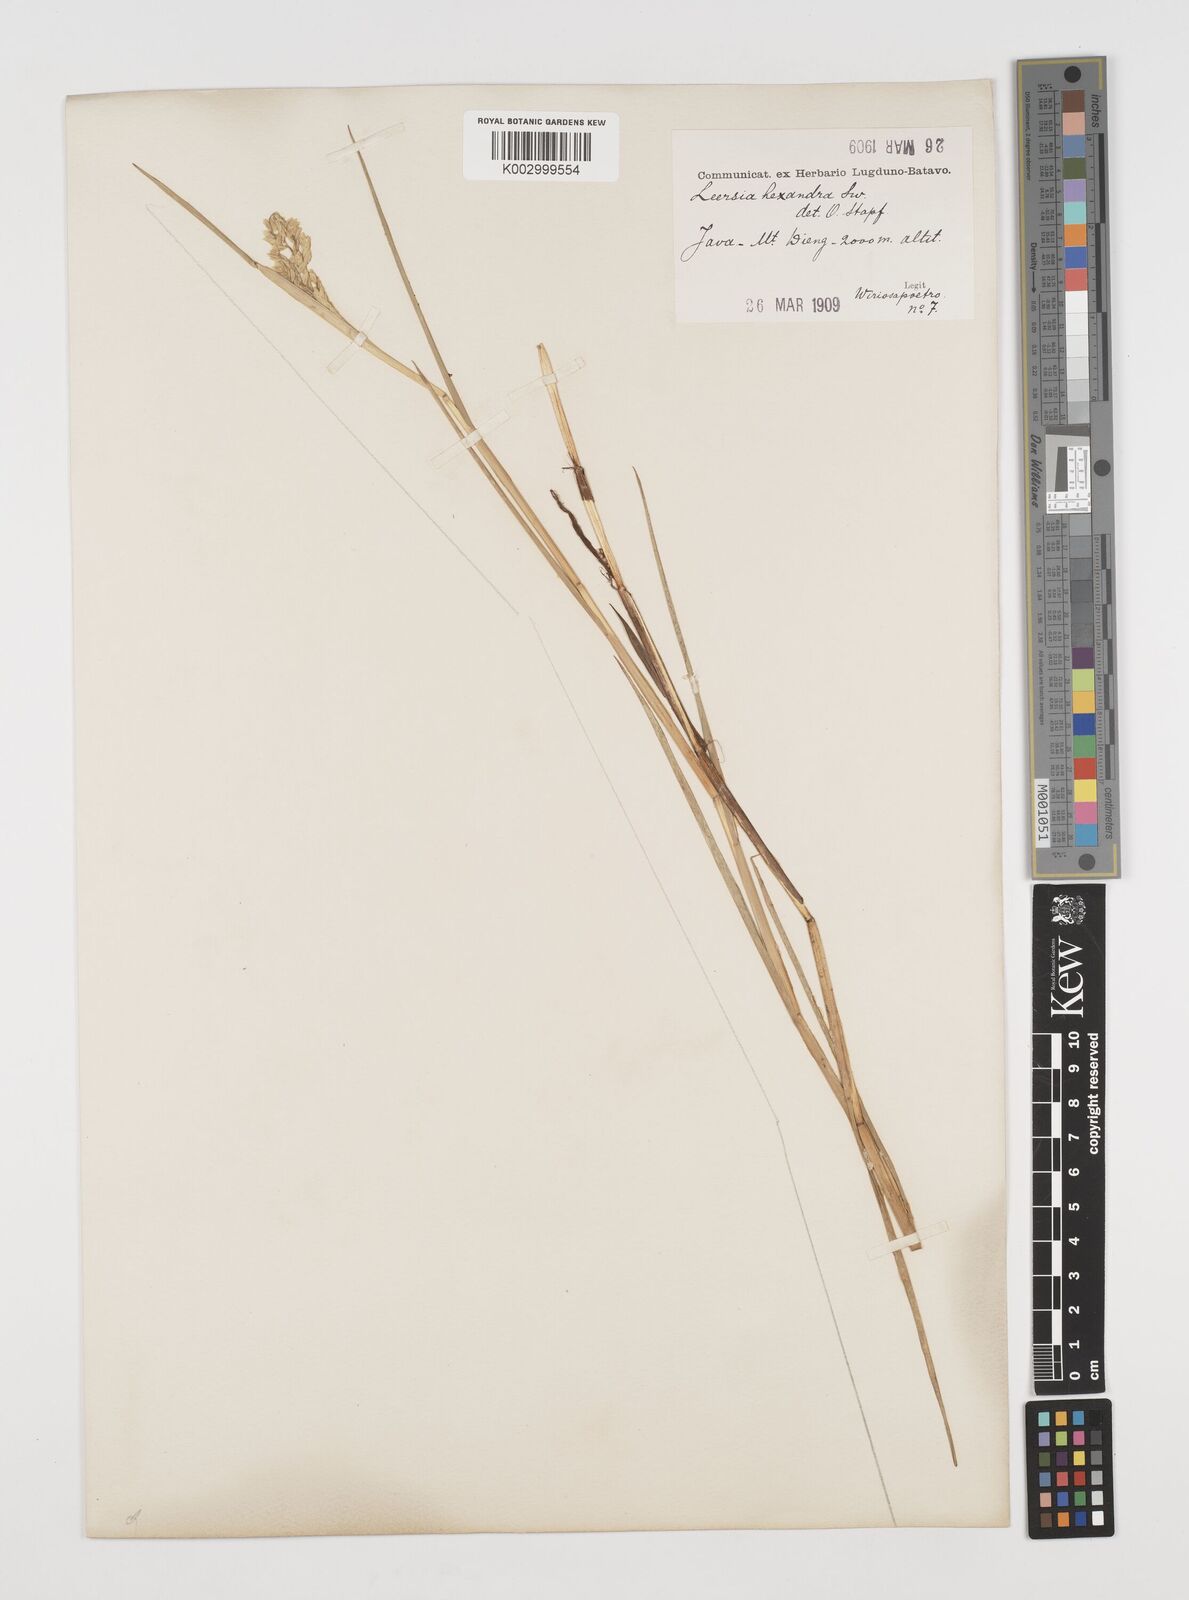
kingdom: Plantae
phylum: Tracheophyta
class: Liliopsida
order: Poales
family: Poaceae
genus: Leersia
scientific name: Leersia hexandra
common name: Southern cut grass
